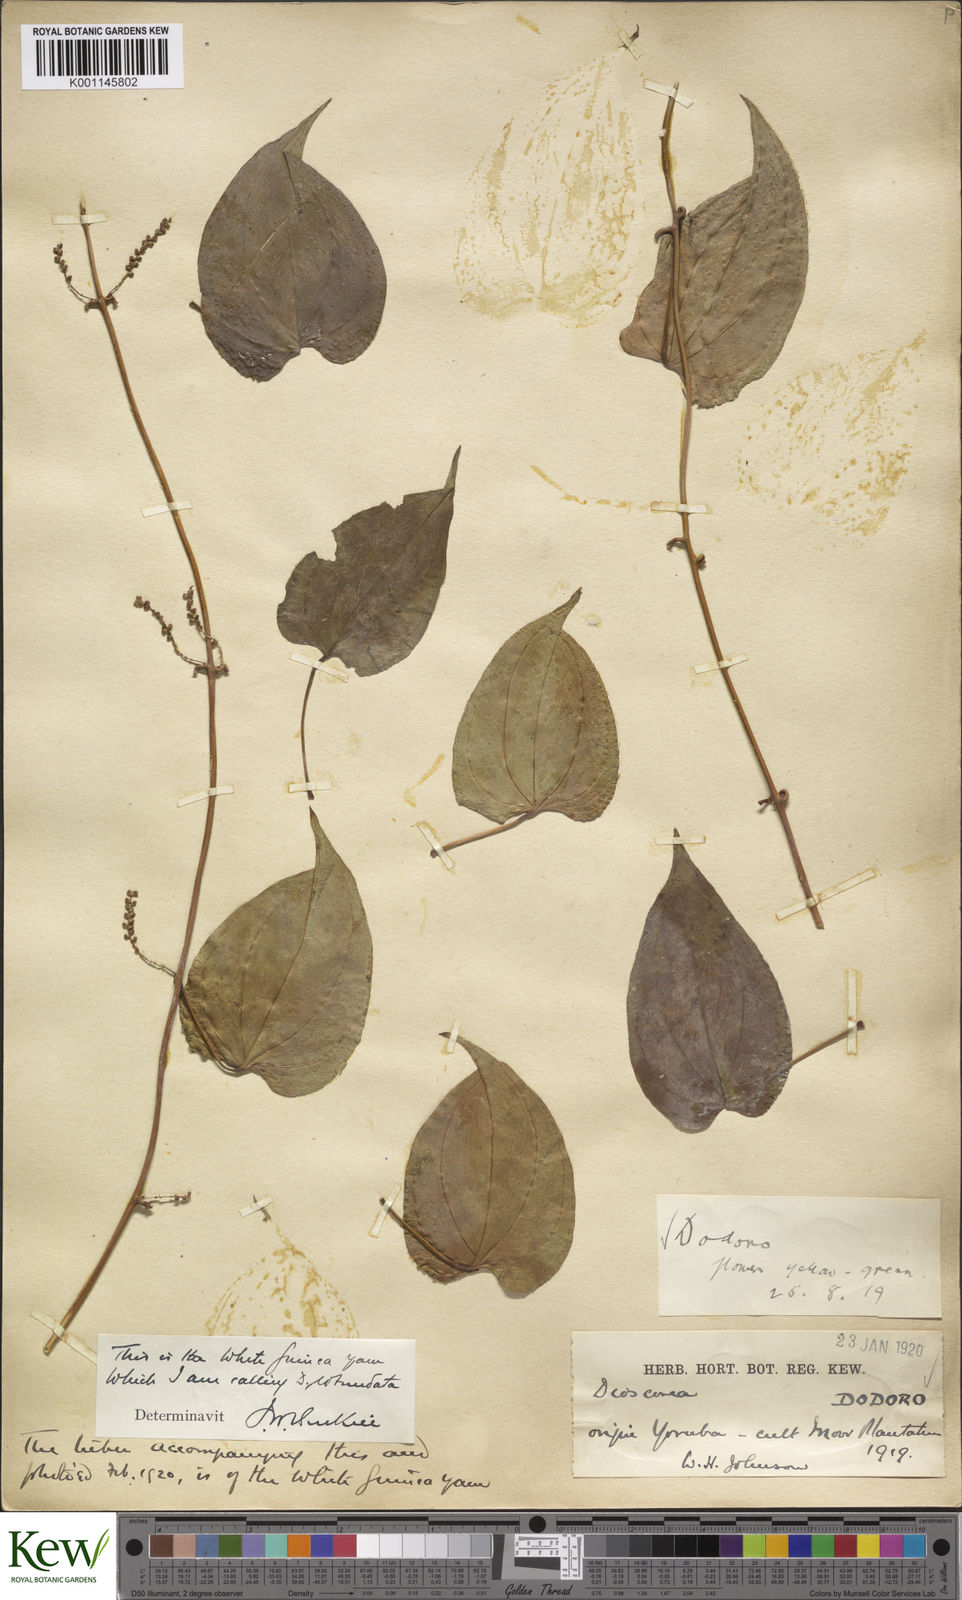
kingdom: Plantae
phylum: Tracheophyta
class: Liliopsida
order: Dioscoreales
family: Dioscoreaceae
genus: Dioscorea
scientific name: Dioscorea cayenensis
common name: Attoto yam
